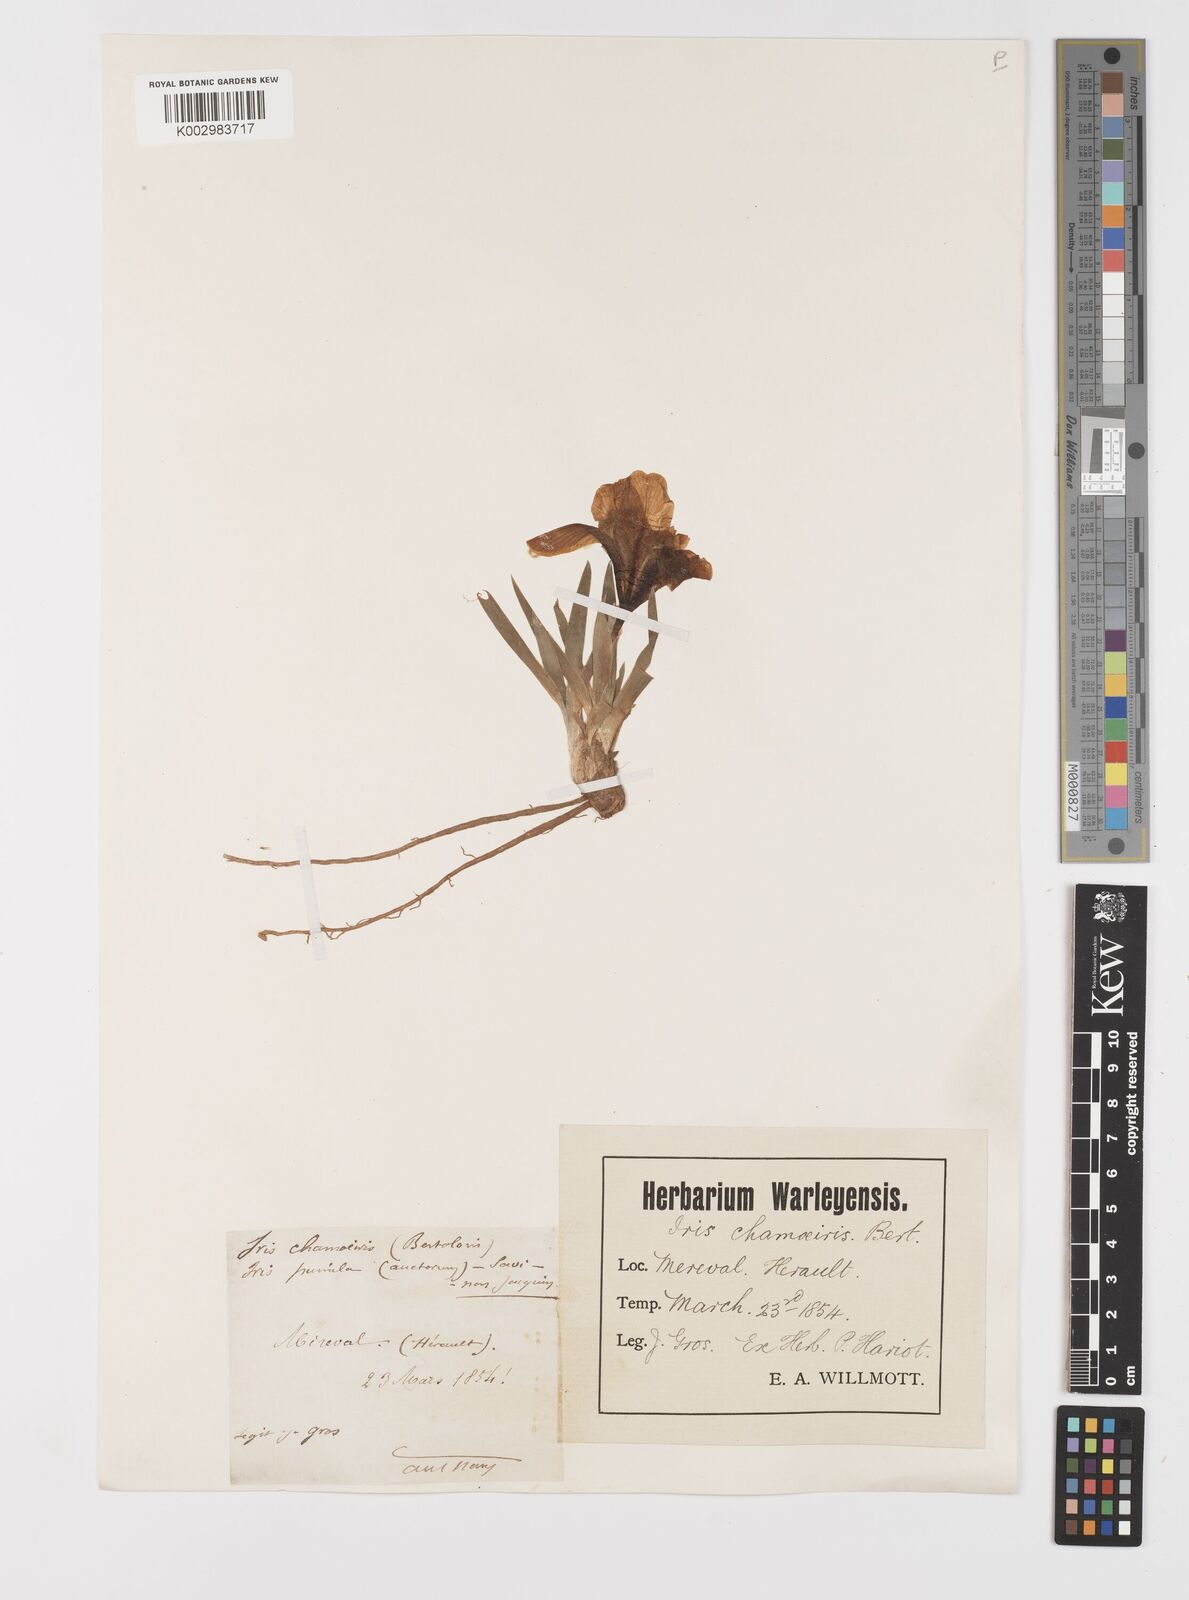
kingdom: Plantae
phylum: Tracheophyta
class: Liliopsida
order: Asparagales
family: Iridaceae
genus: Iris
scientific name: Iris lutescens
